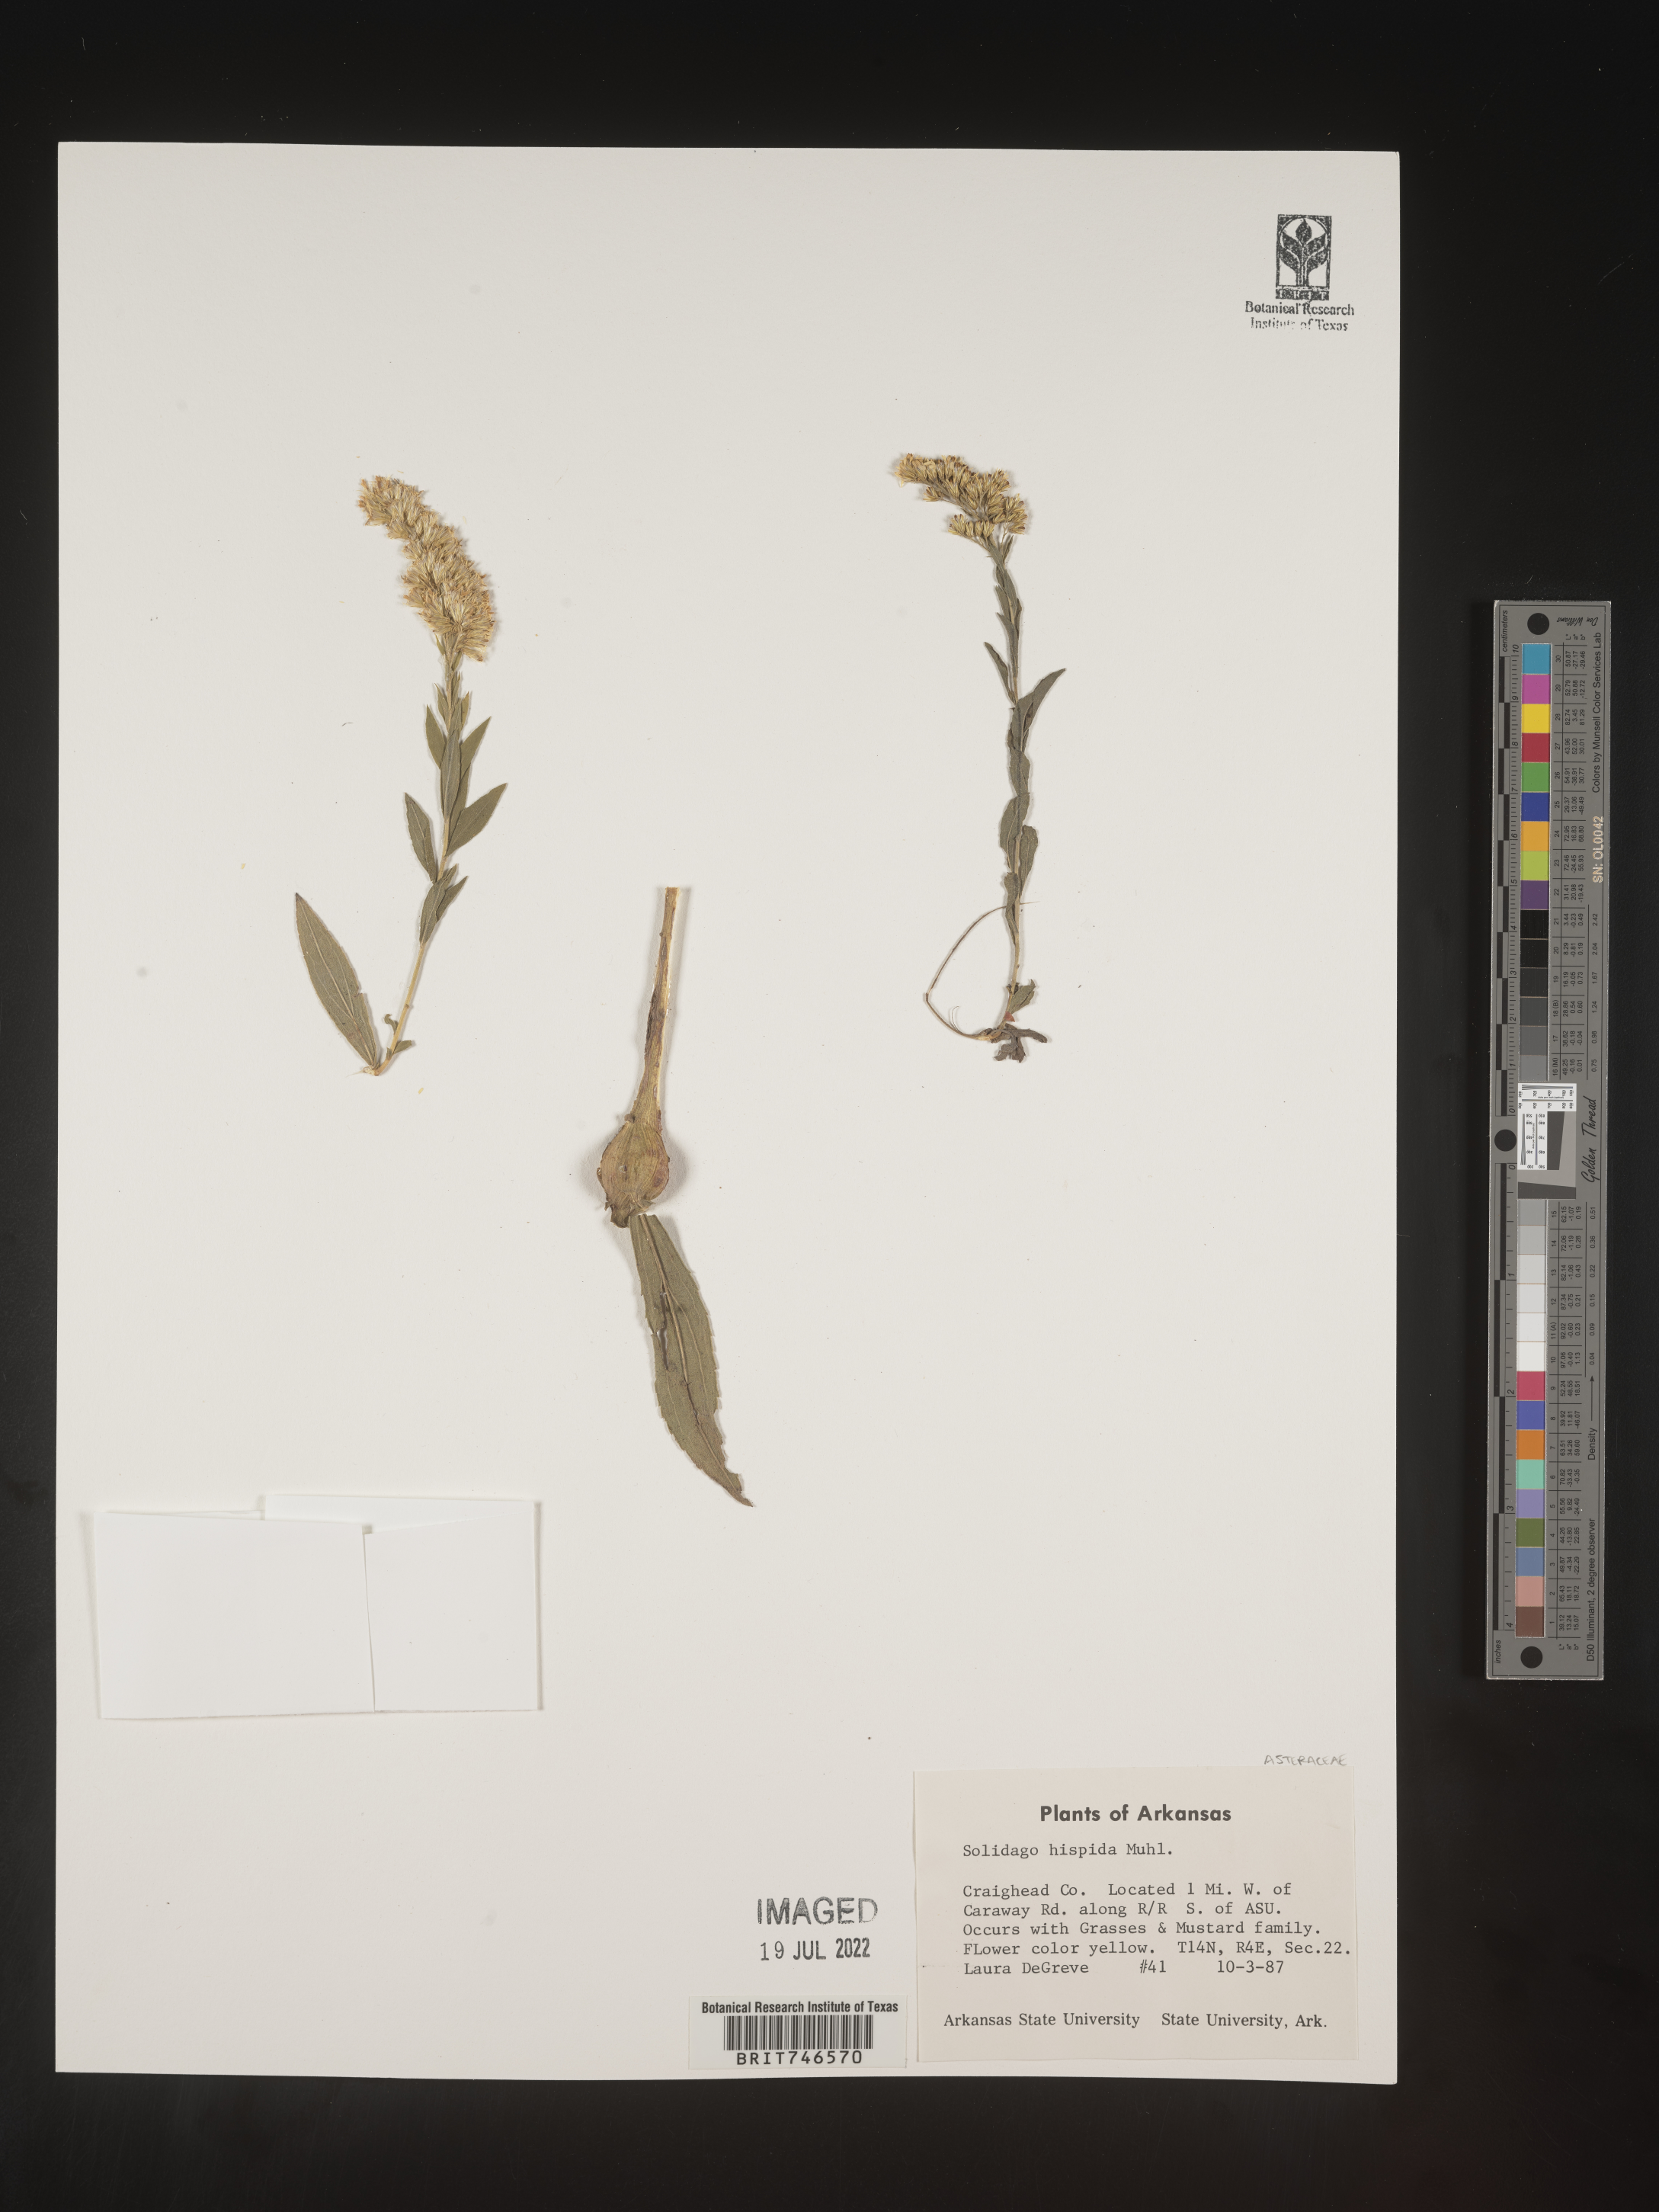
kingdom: Plantae
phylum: Tracheophyta
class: Magnoliopsida
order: Asterales
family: Asteraceae
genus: Solidago
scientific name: Solidago hispida
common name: Hairy goldenrod
